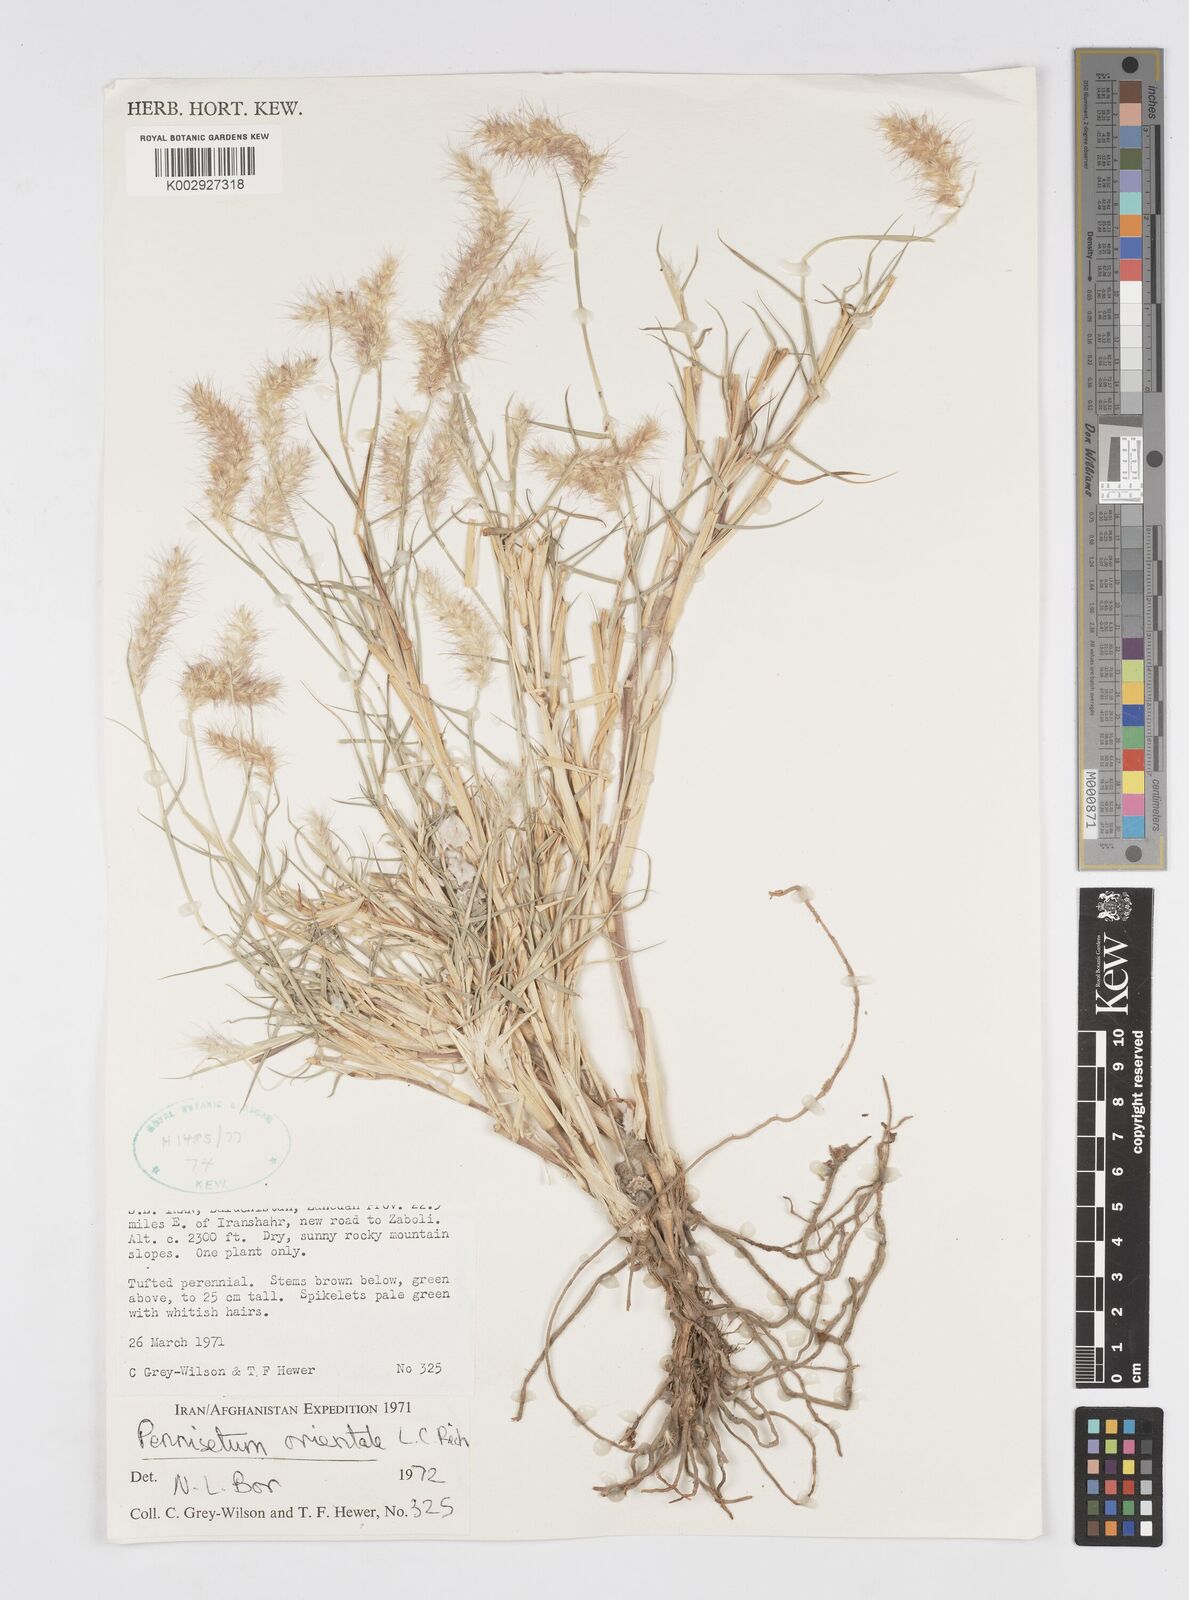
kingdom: Plantae
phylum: Tracheophyta
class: Liliopsida
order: Poales
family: Poaceae
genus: Cenchrus
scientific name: Cenchrus ciliaris
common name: Buffelgrass
